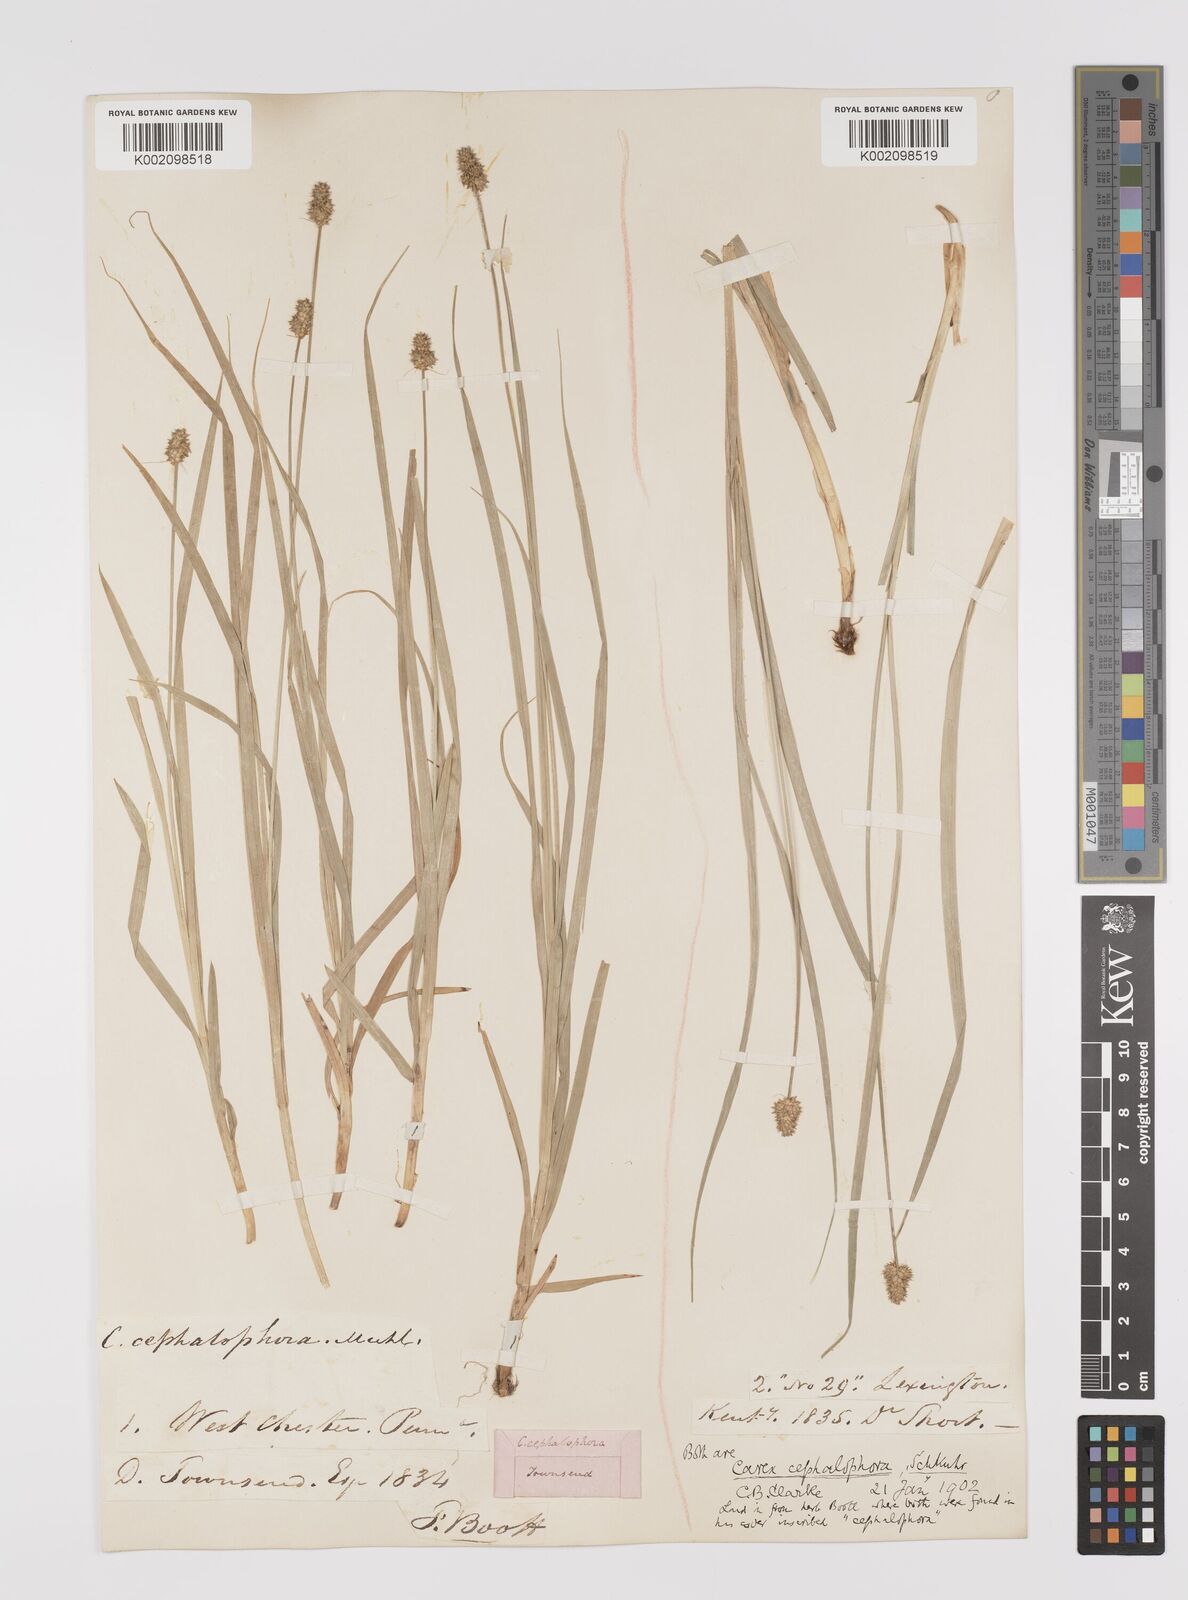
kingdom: Plantae
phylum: Tracheophyta
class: Liliopsida
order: Poales
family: Cyperaceae
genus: Carex
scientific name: Carex cephalophora
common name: Oval-headed sedge
